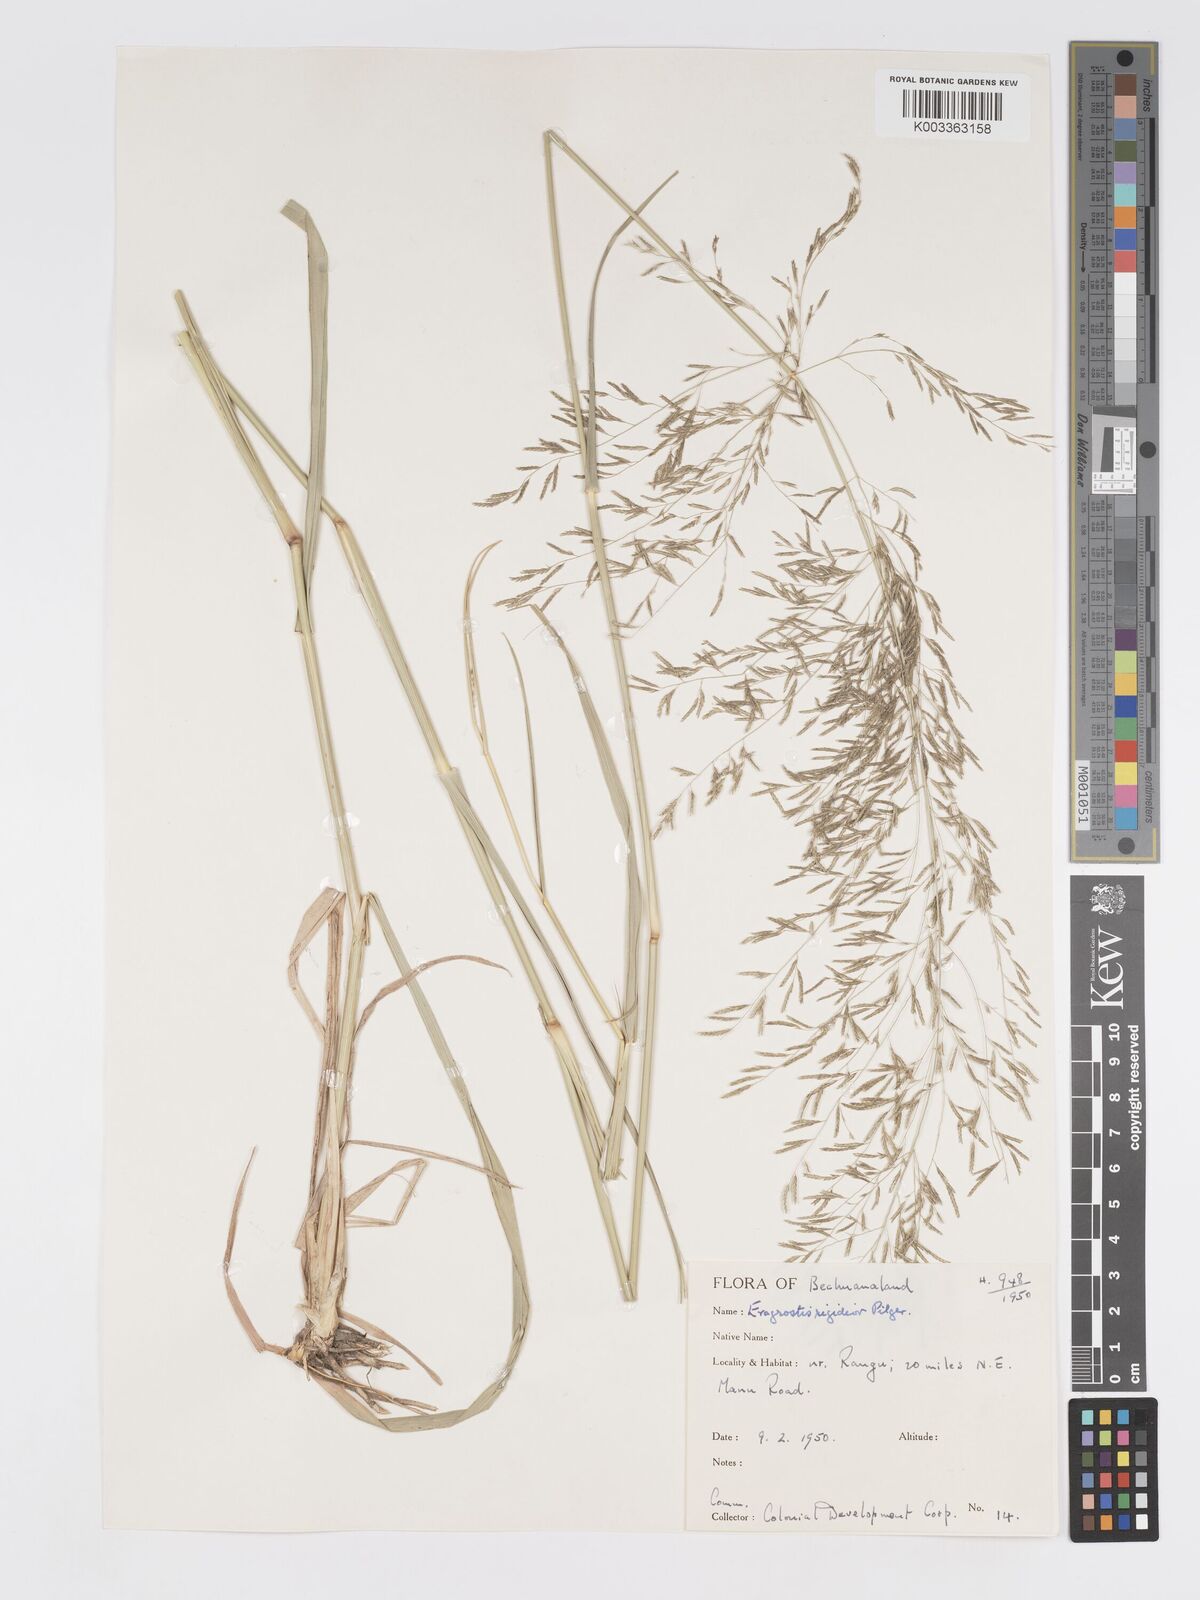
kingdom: Plantae
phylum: Tracheophyta
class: Liliopsida
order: Poales
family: Poaceae
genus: Eragrostis
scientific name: Eragrostis cylindriflora
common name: Cylinderflower lovegrass
